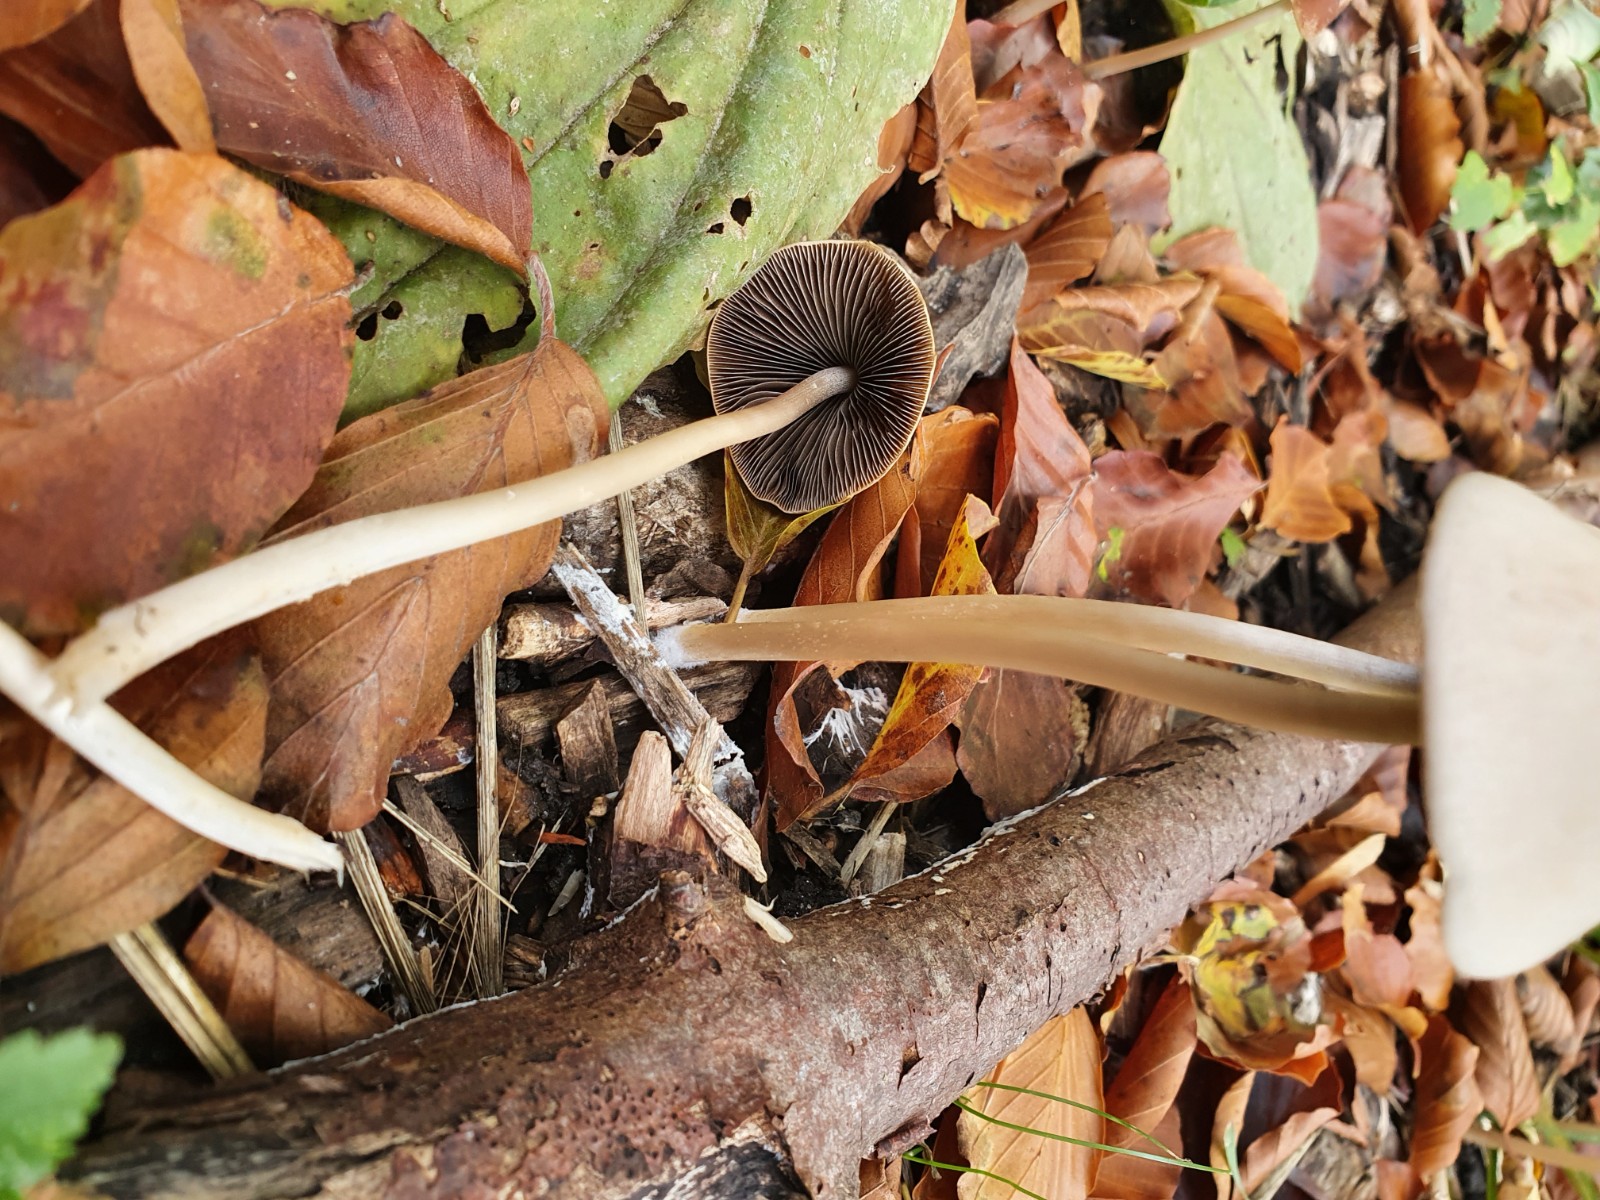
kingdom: Fungi
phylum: Basidiomycota
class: Agaricomycetes
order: Agaricales
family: Psathyrellaceae
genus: Parasola
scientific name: Parasola conopilea
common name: kegle-hjulhat
